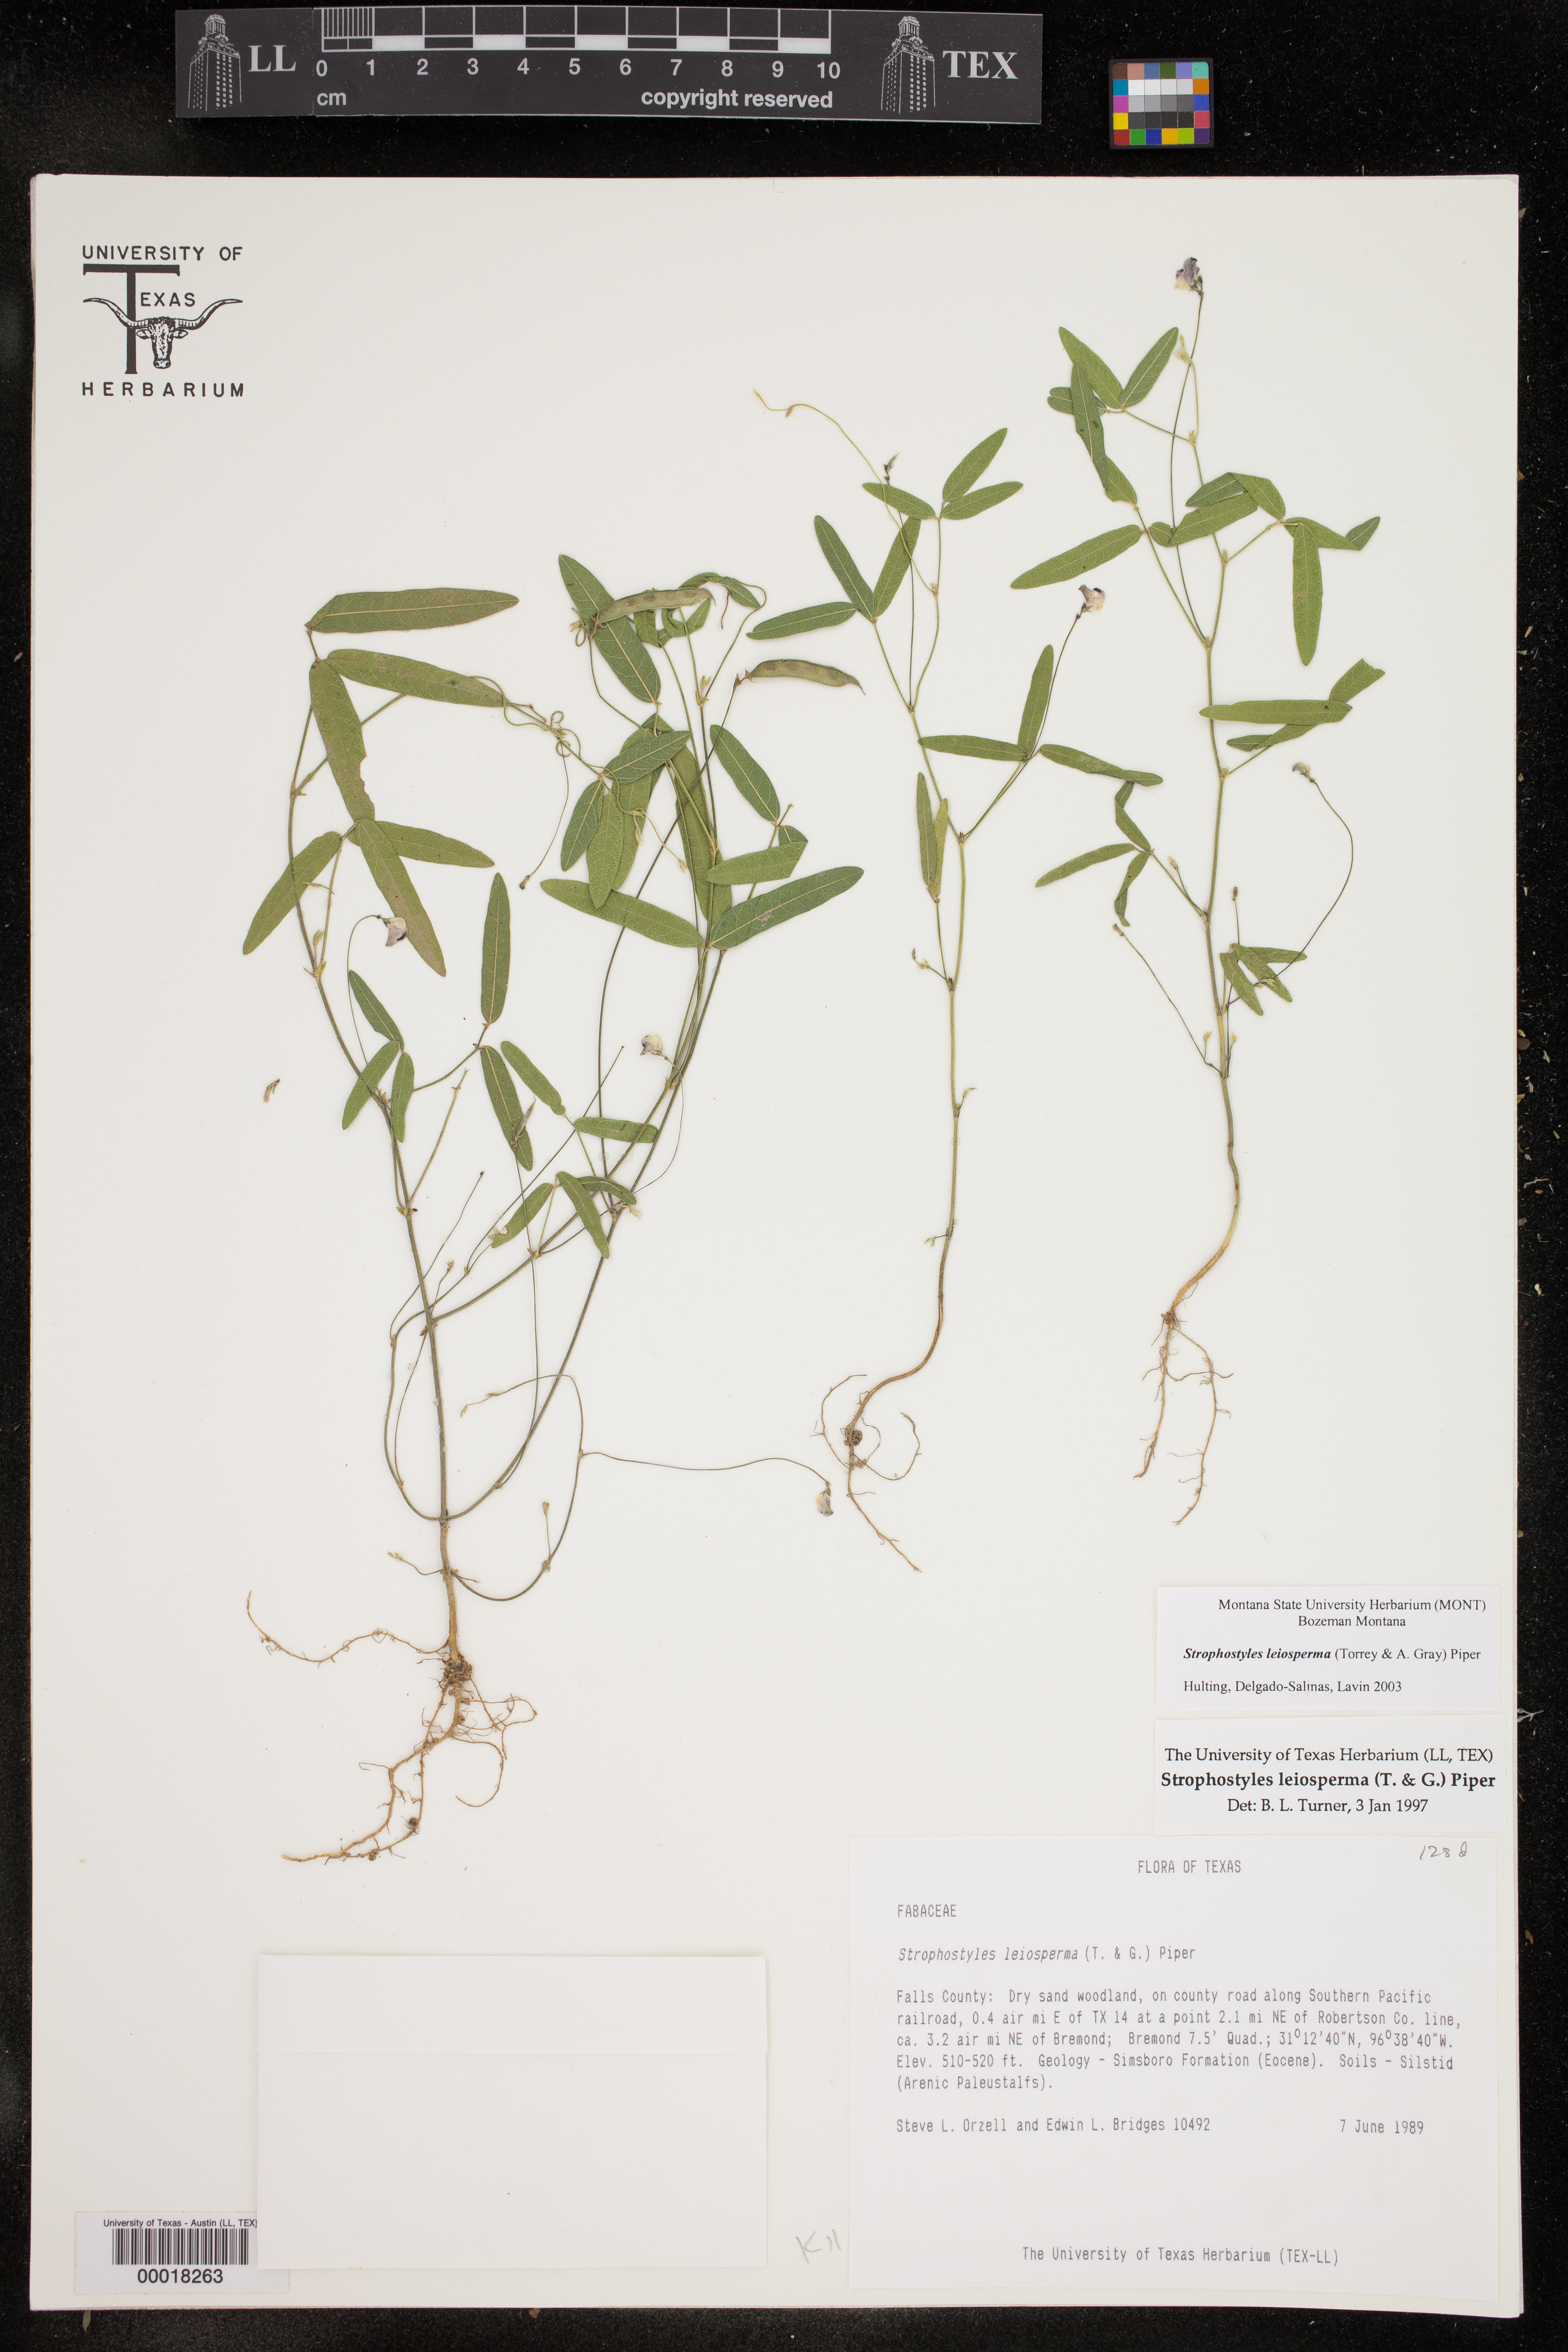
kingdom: Plantae
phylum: Tracheophyta
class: Magnoliopsida
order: Fabales
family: Fabaceae
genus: Strophostyles
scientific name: Strophostyles leiosperma
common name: Smooth-seed wild bean
